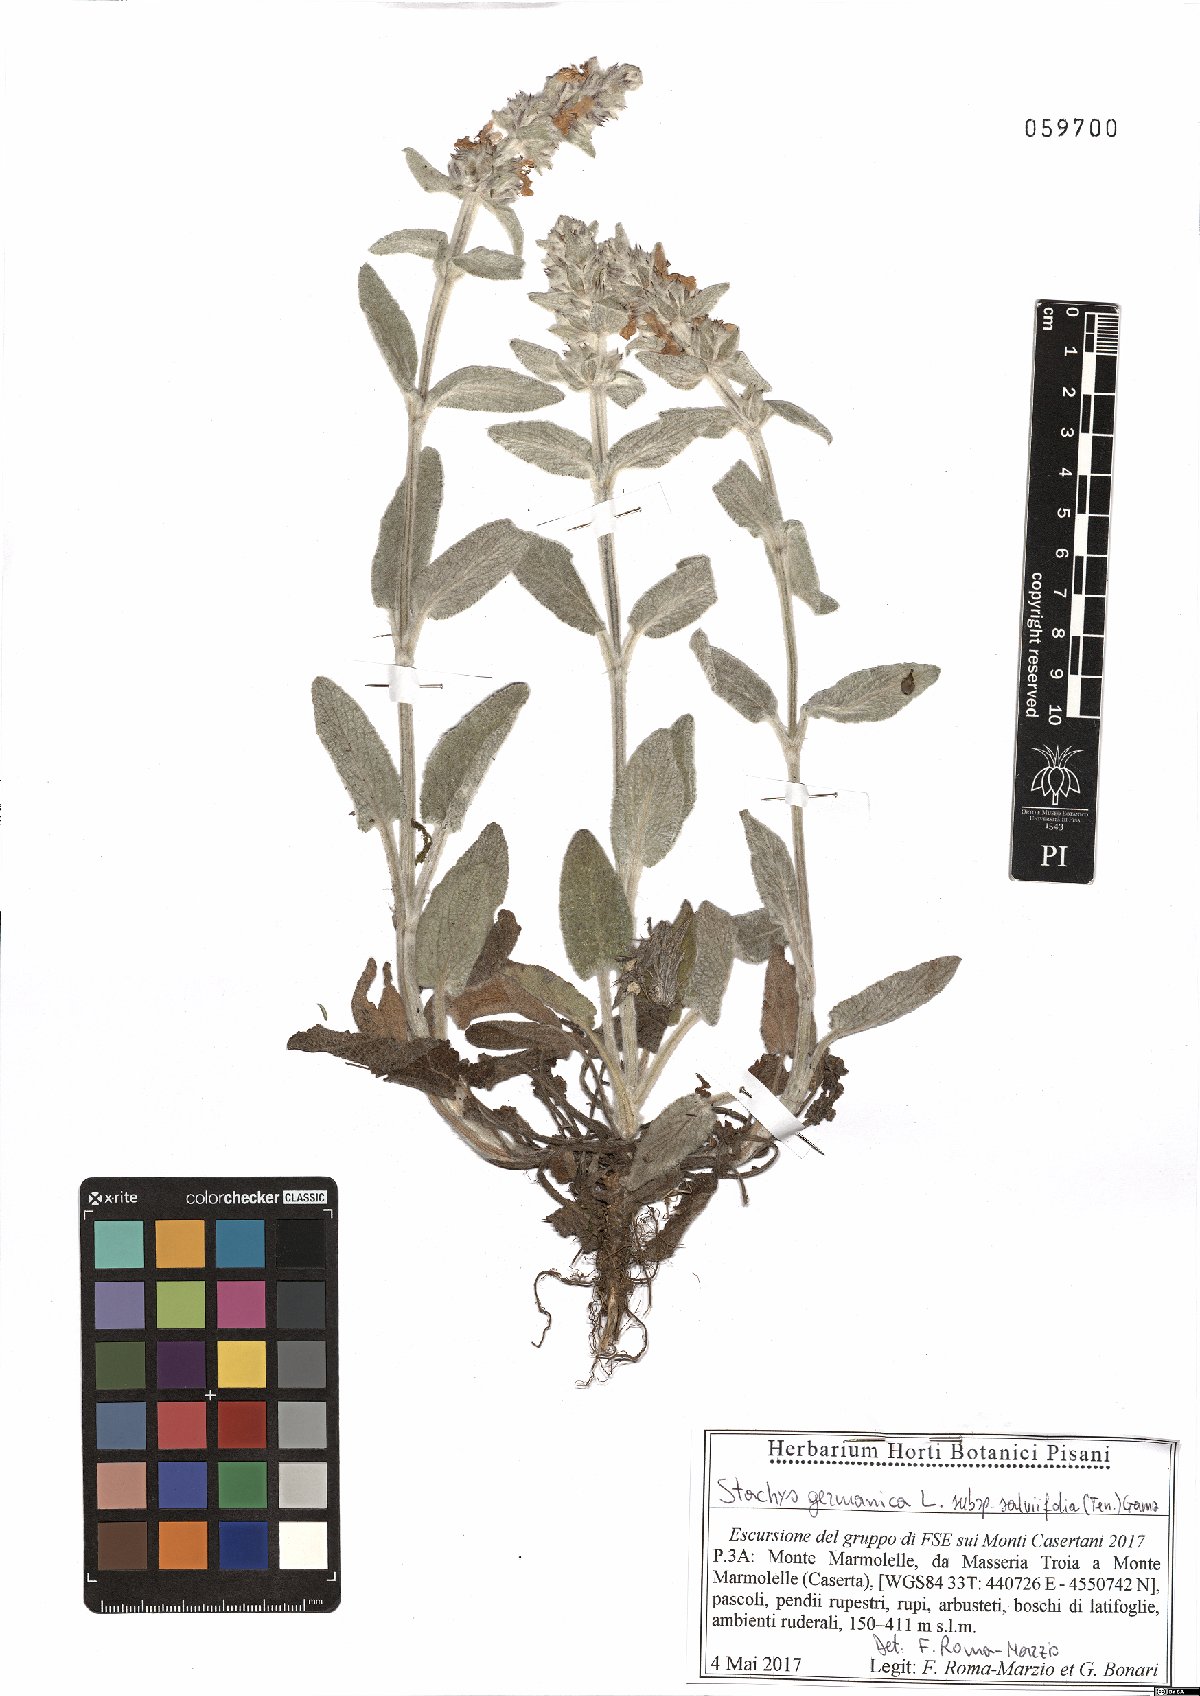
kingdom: Plantae
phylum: Tracheophyta
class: Magnoliopsida
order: Lamiales
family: Lamiaceae
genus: Stachys
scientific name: Stachys cretica
